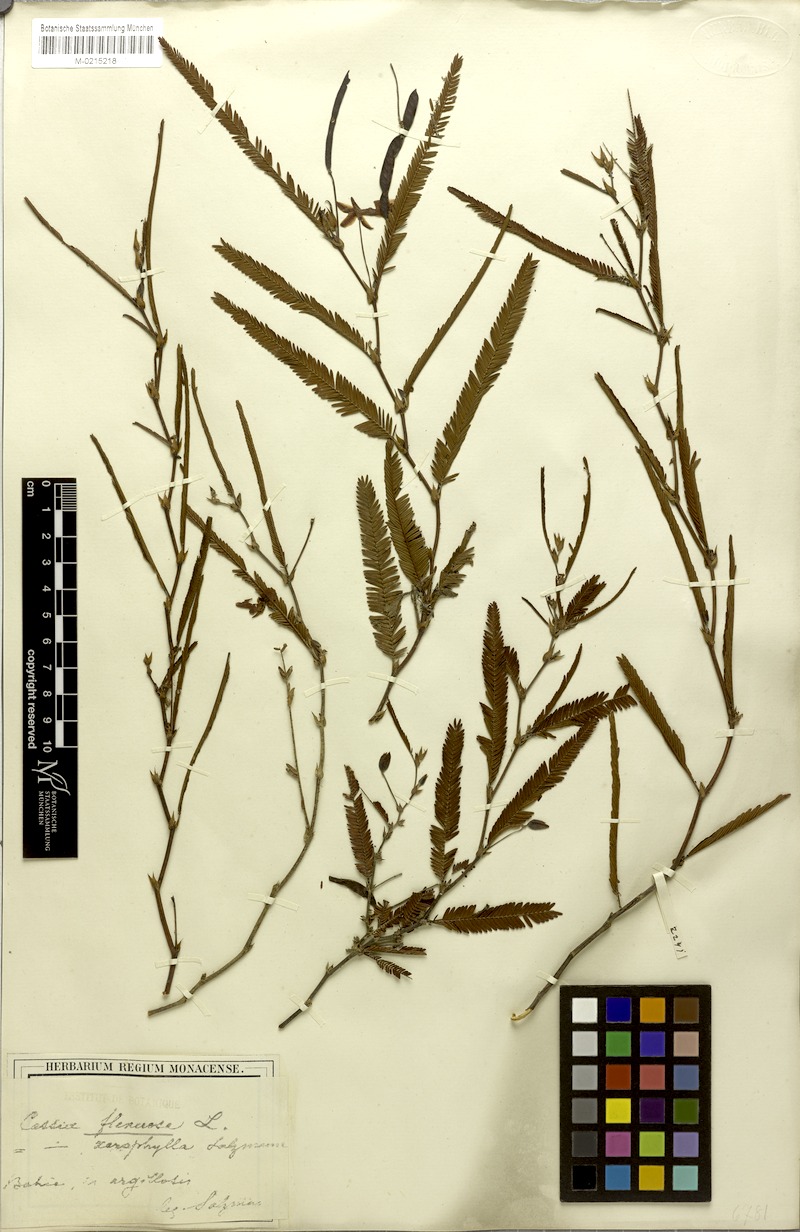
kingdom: Plantae
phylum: Tracheophyta
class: Magnoliopsida
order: Fabales
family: Fabaceae
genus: Chamaecrista
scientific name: Chamaecrista flexuosa
